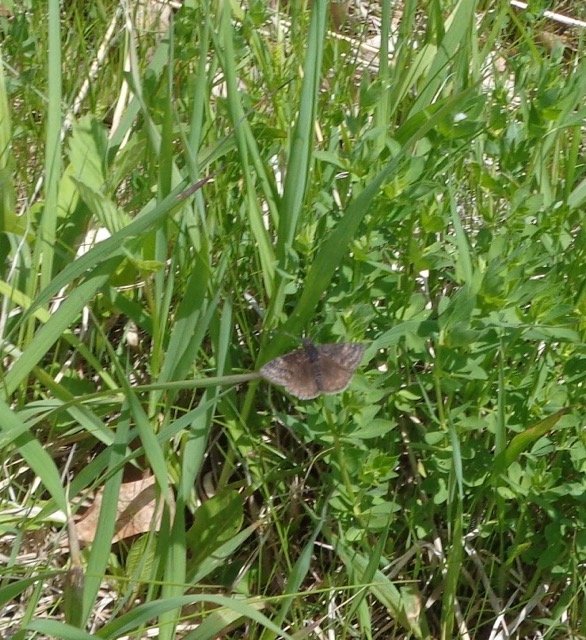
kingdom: Animalia
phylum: Arthropoda
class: Insecta
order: Lepidoptera
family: Hesperiidae
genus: Gesta
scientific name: Gesta
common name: Juvenal's Duskywing
